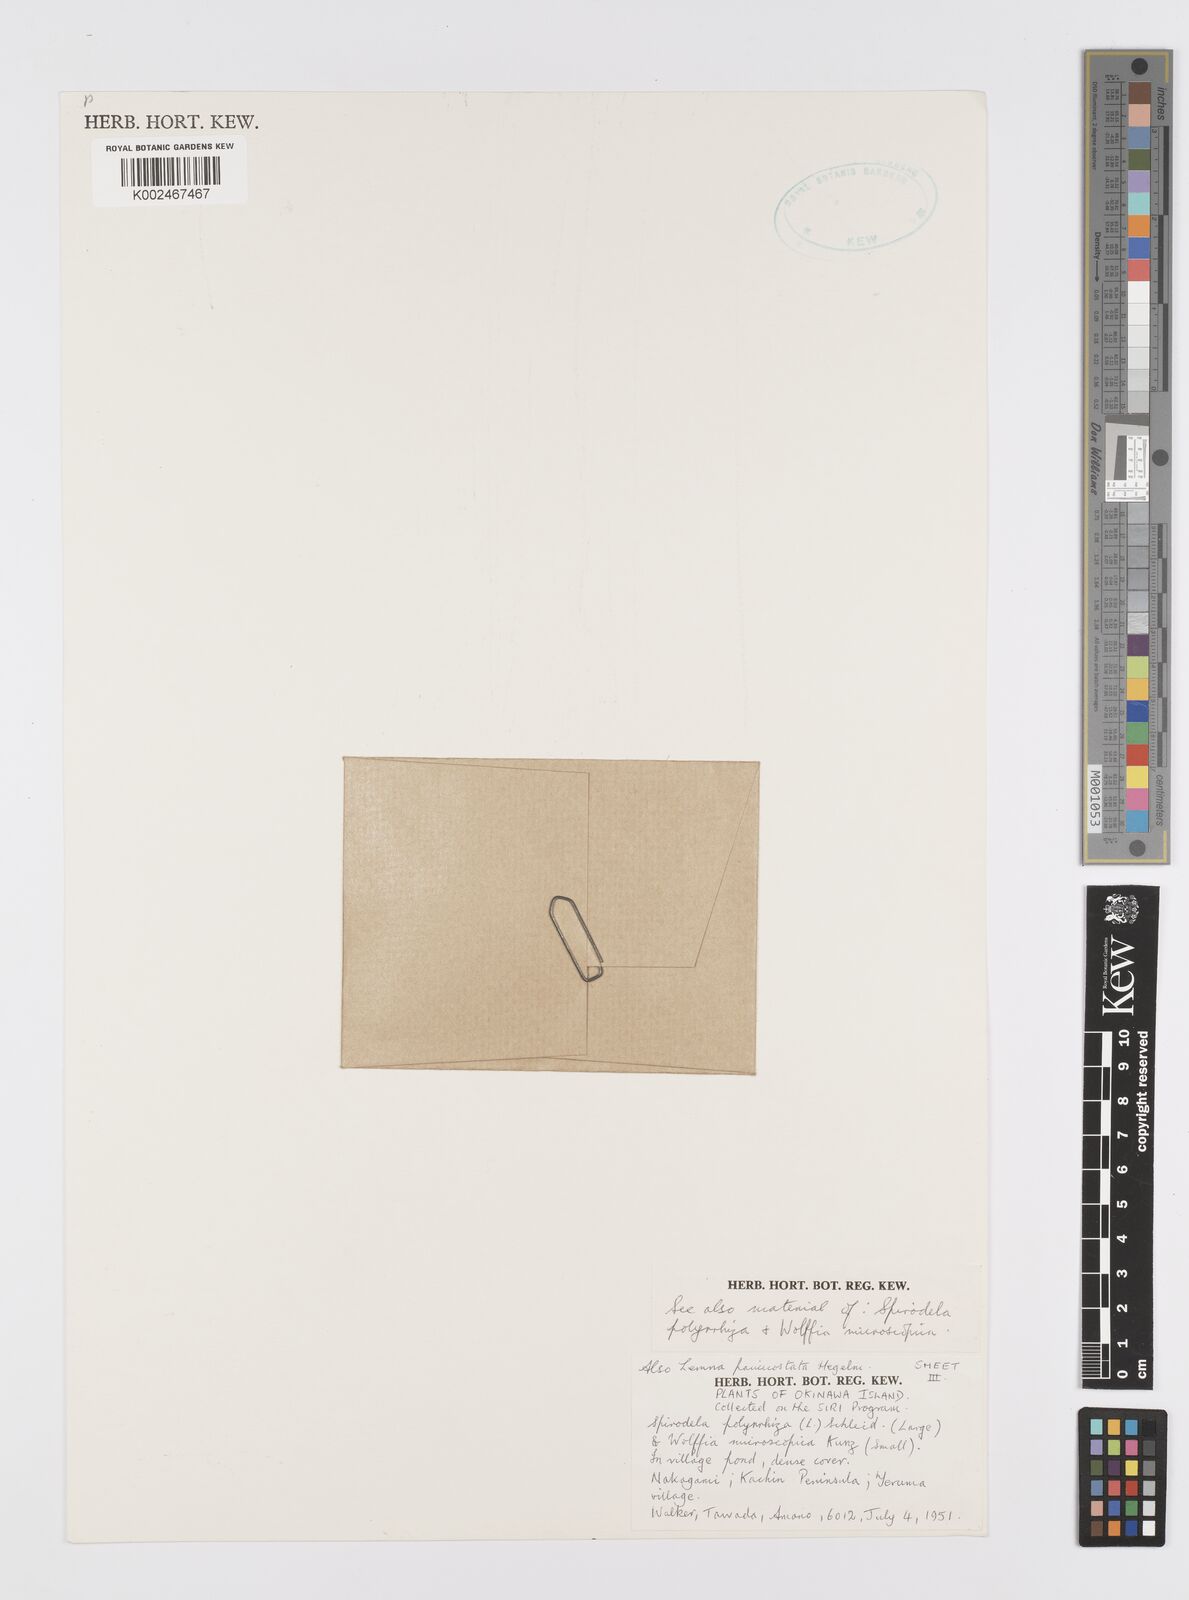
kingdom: Plantae
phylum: Tracheophyta
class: Liliopsida
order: Alismatales
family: Araceae
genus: Lemna
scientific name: Lemna aequinoctialis
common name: Duckweed
